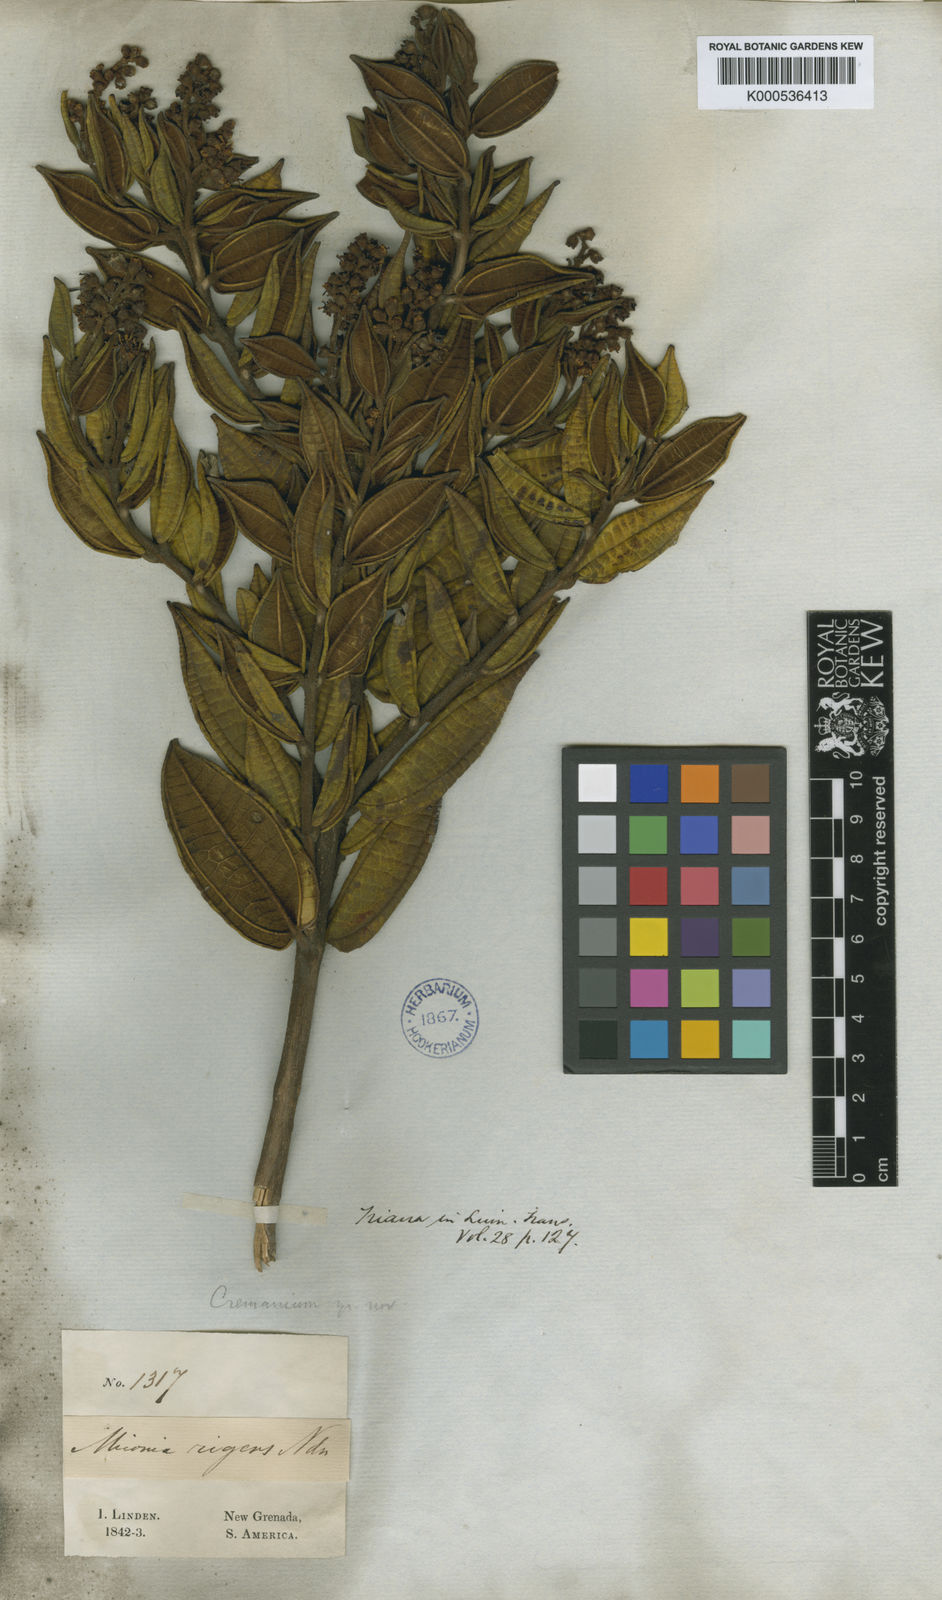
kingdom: Plantae
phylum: Tracheophyta
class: Magnoliopsida
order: Myrtales
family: Melastomataceae
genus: Miconia
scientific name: Miconia rigens
